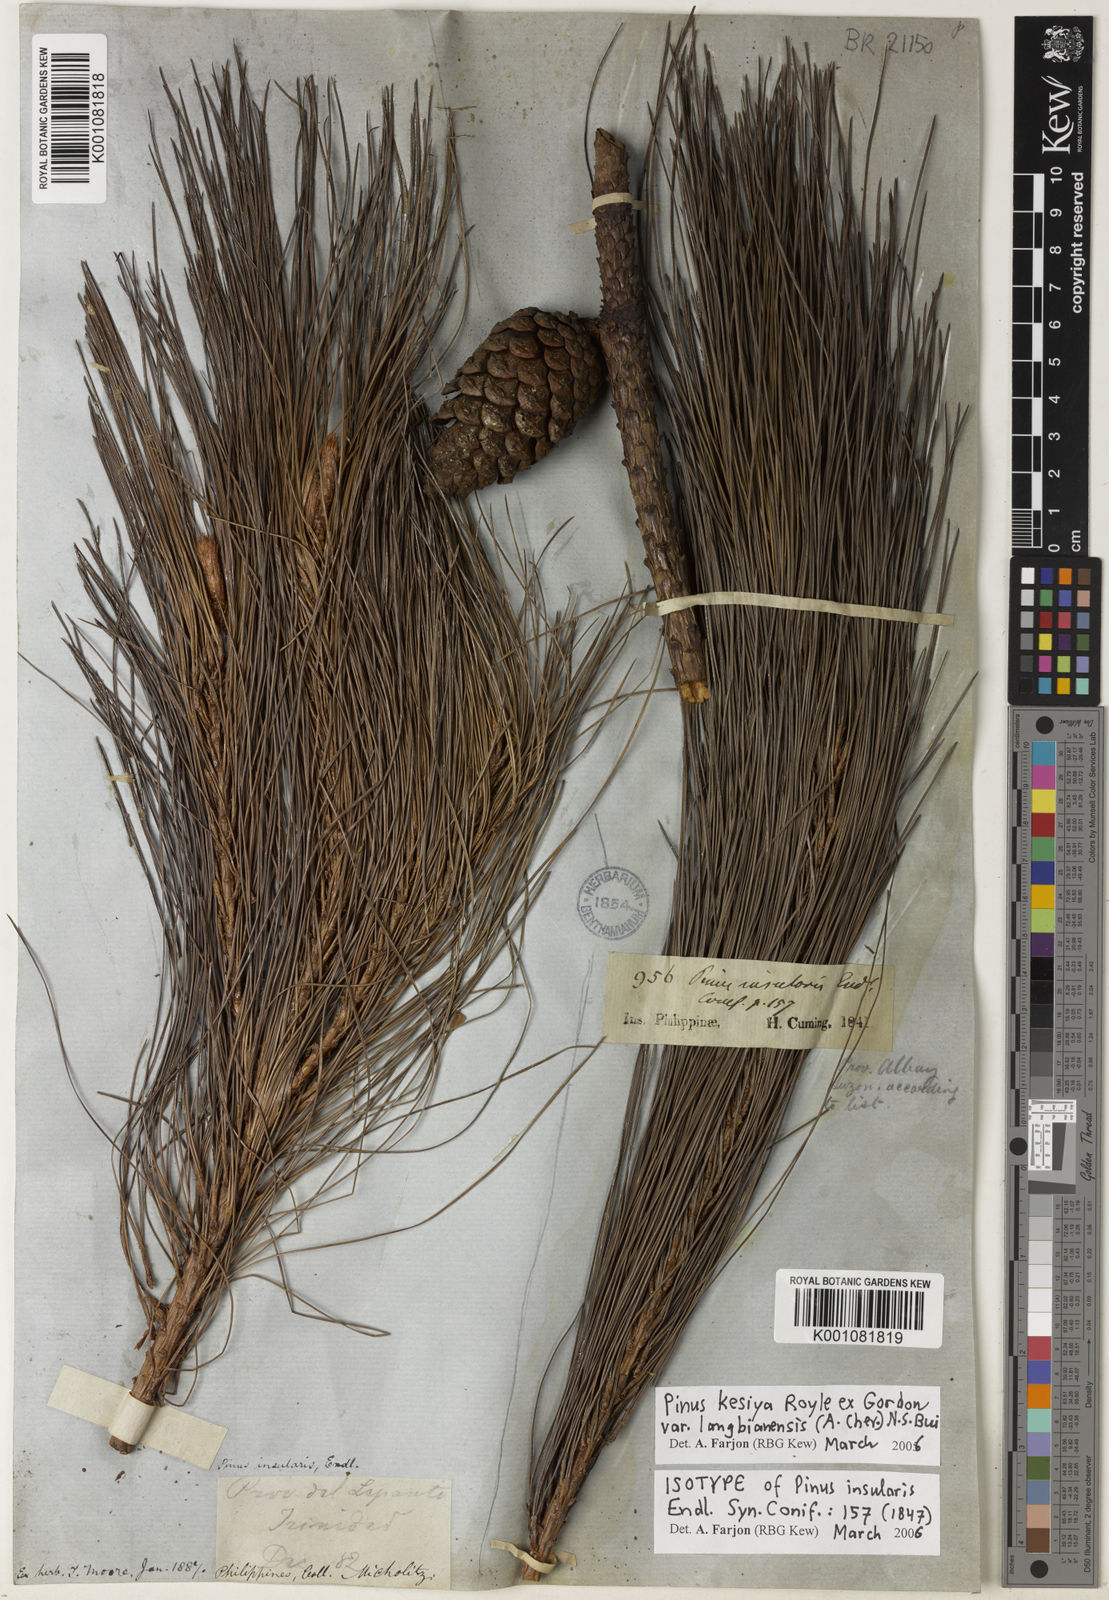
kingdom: Plantae
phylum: Tracheophyta
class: Pinopsida
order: Pinales
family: Pinaceae
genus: Pinus
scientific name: Pinus kesiya
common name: Benguet pine
